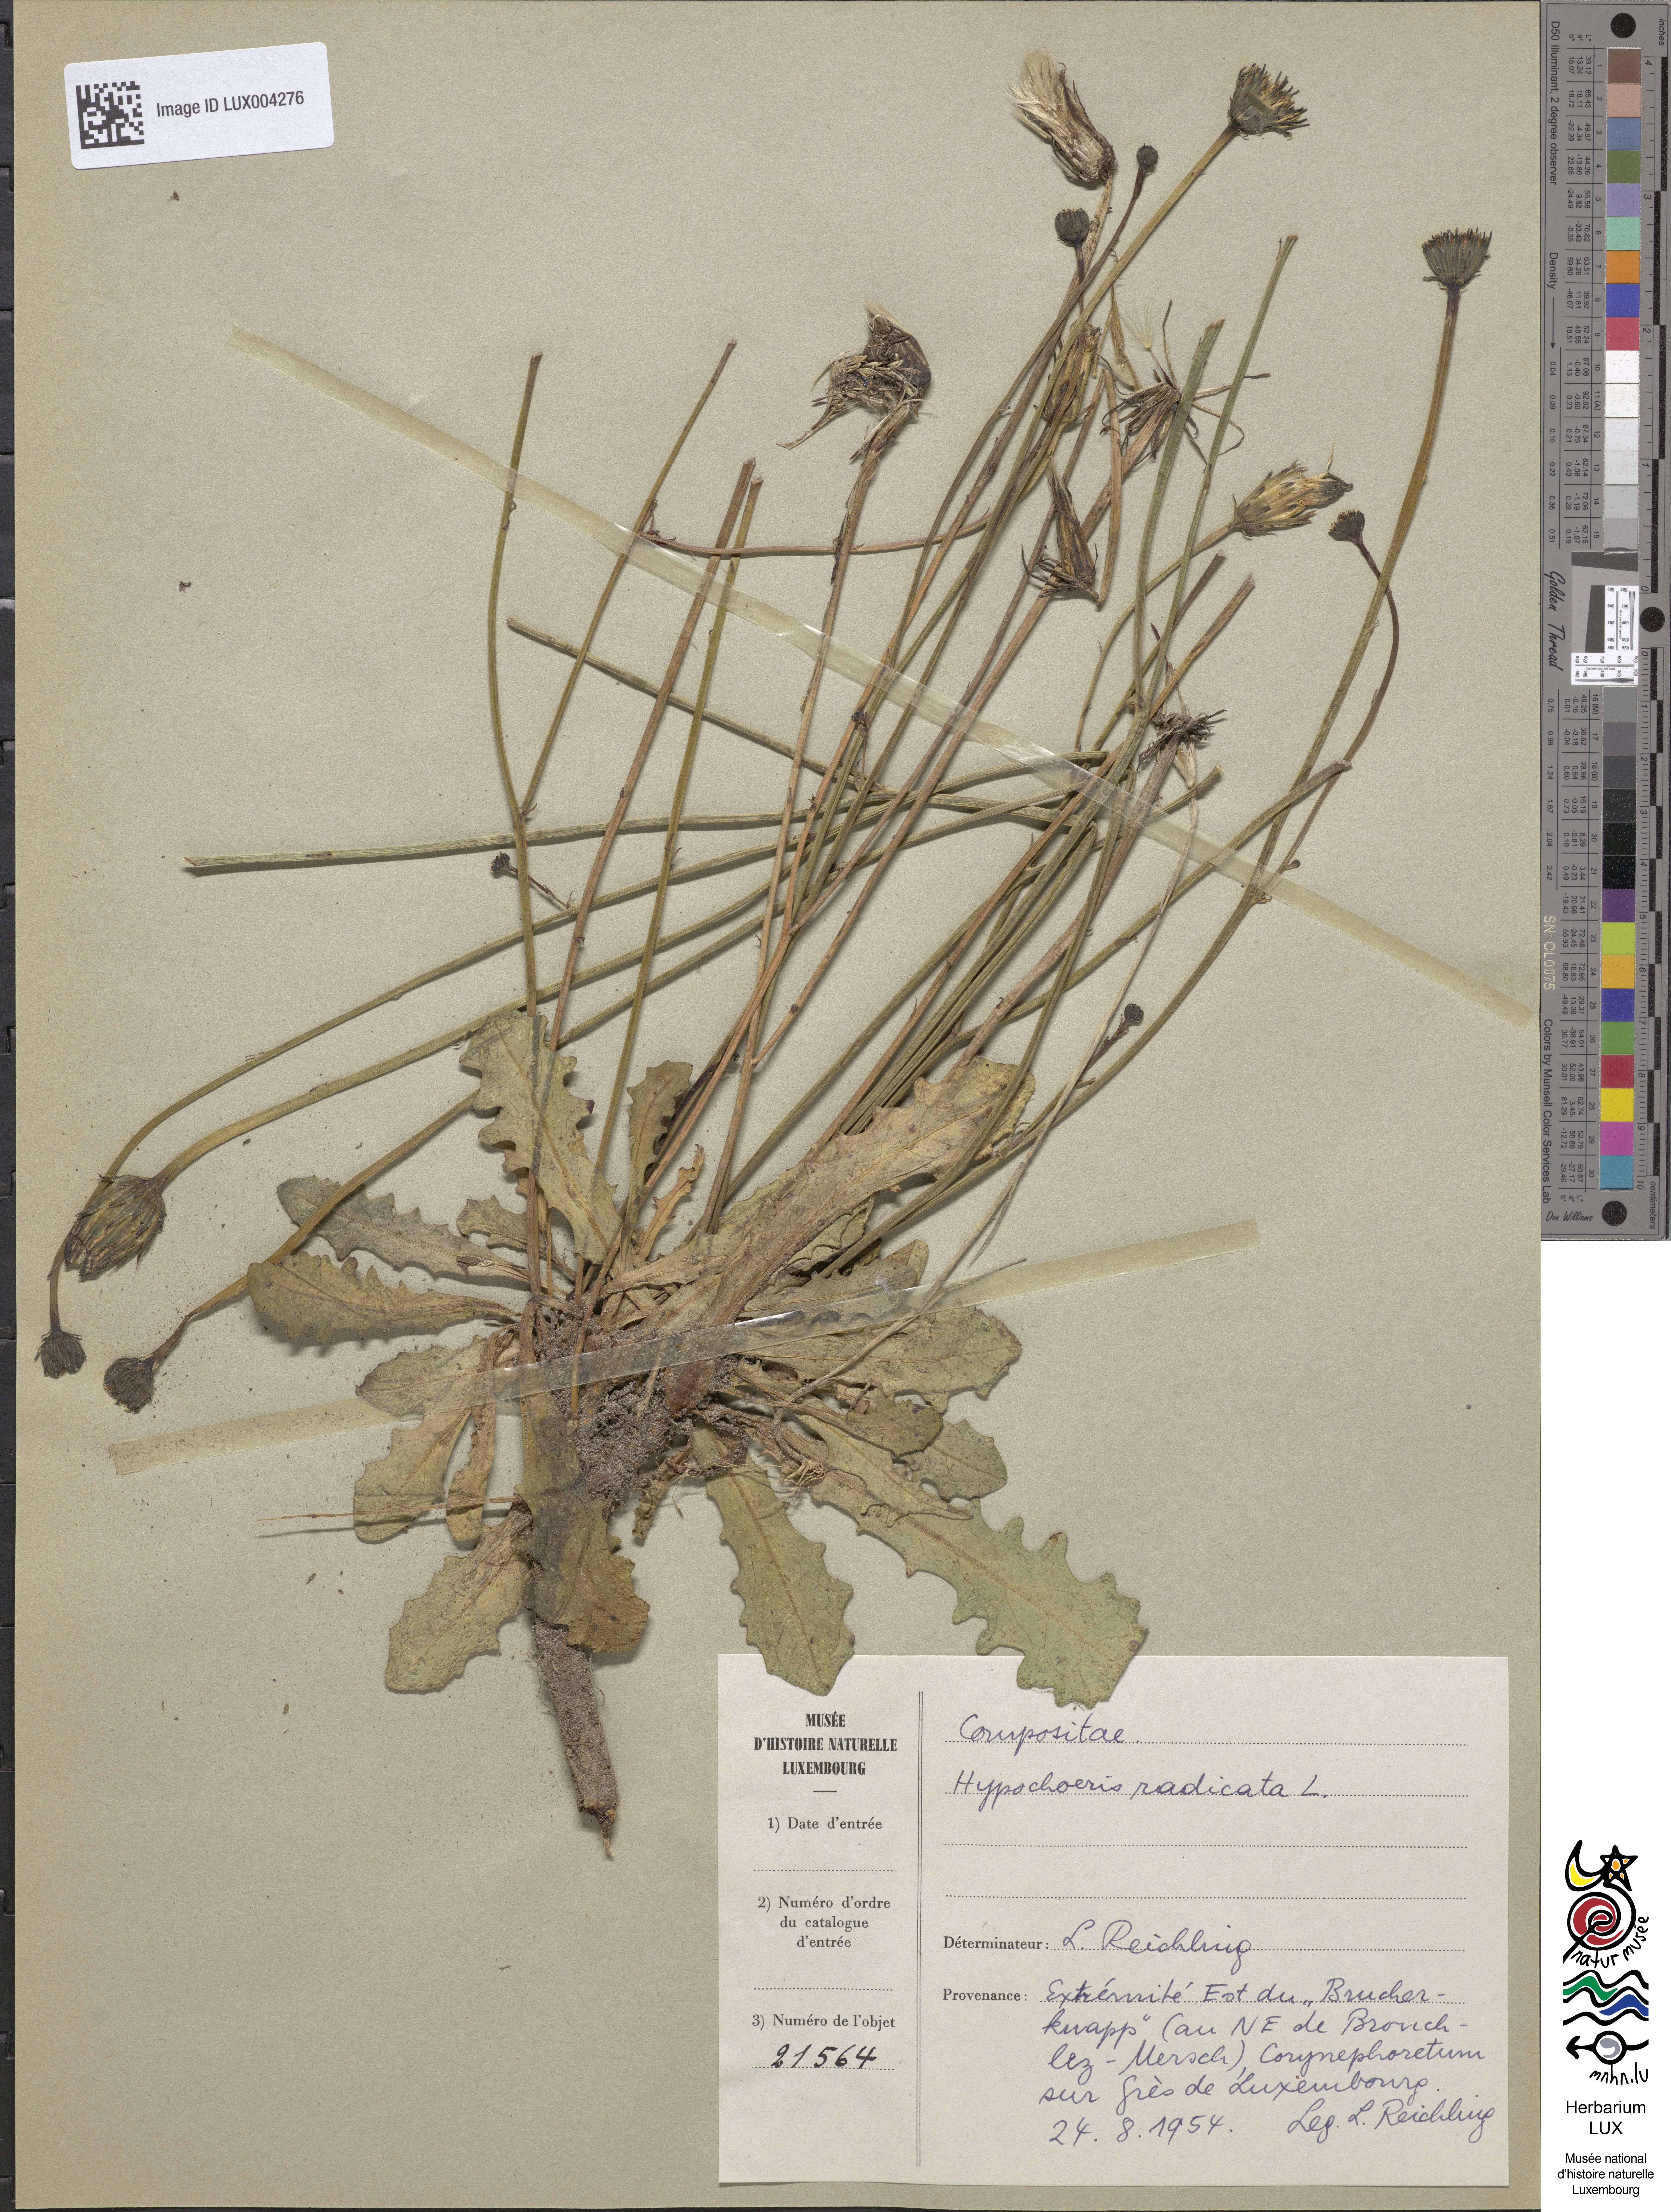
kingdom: Plantae
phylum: Tracheophyta
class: Magnoliopsida
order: Asterales
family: Asteraceae
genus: Hypochoeris
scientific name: Hypochoeris radicata
